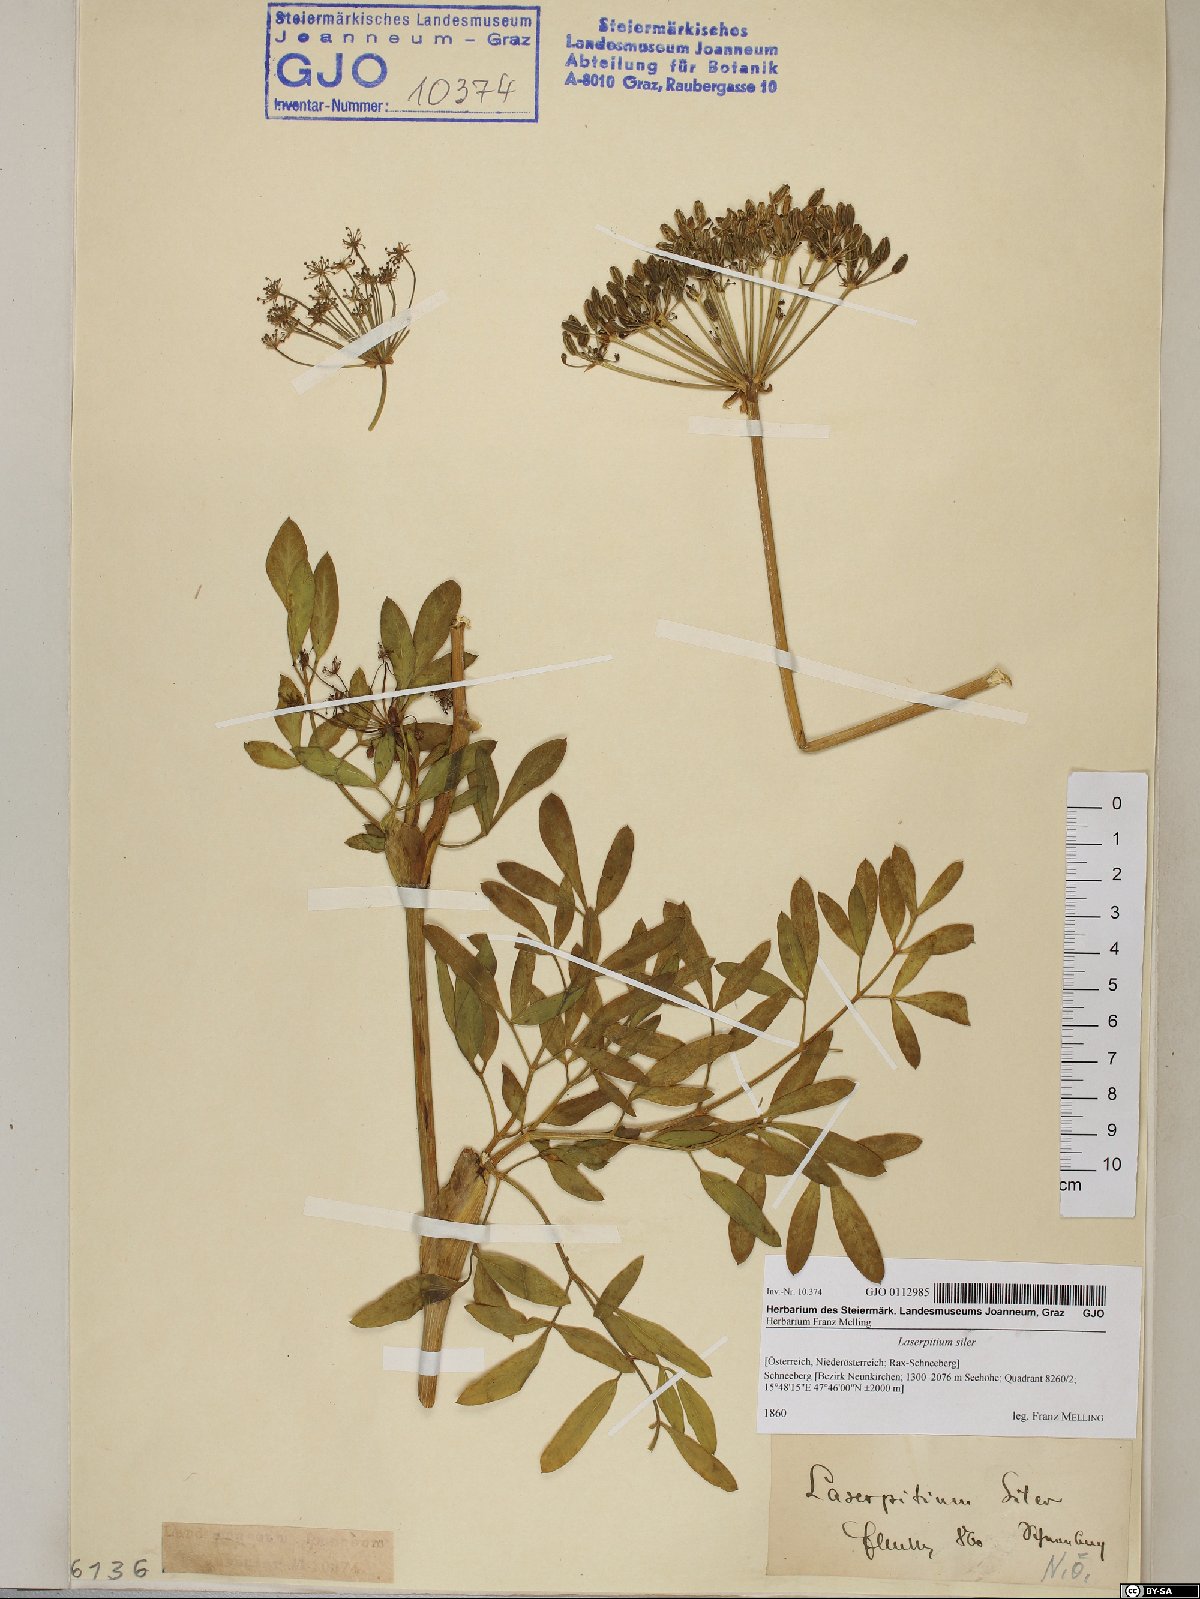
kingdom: Plantae
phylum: Tracheophyta
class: Magnoliopsida
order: Apiales
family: Apiaceae
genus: Siler
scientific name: Siler montanum
